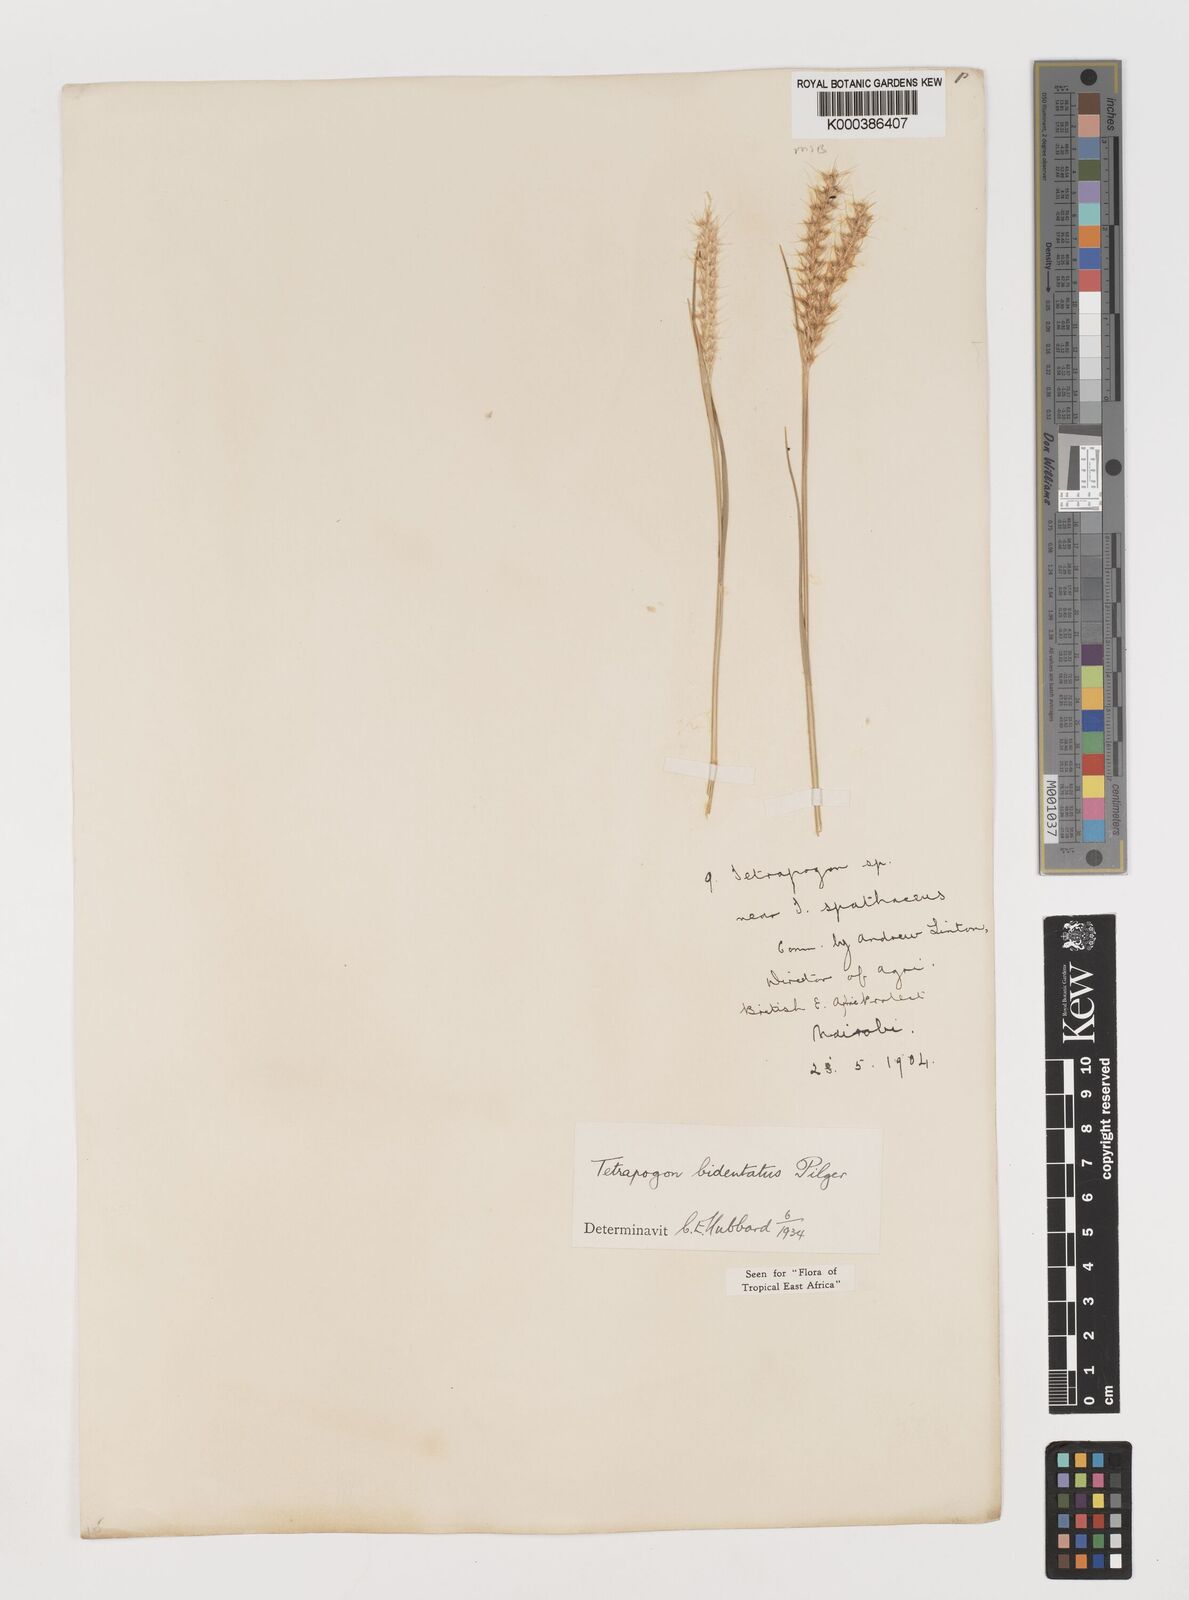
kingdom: Plantae
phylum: Tracheophyta
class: Liliopsida
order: Poales
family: Poaceae
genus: Tetrapogon
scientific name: Tetrapogon bidentatus
